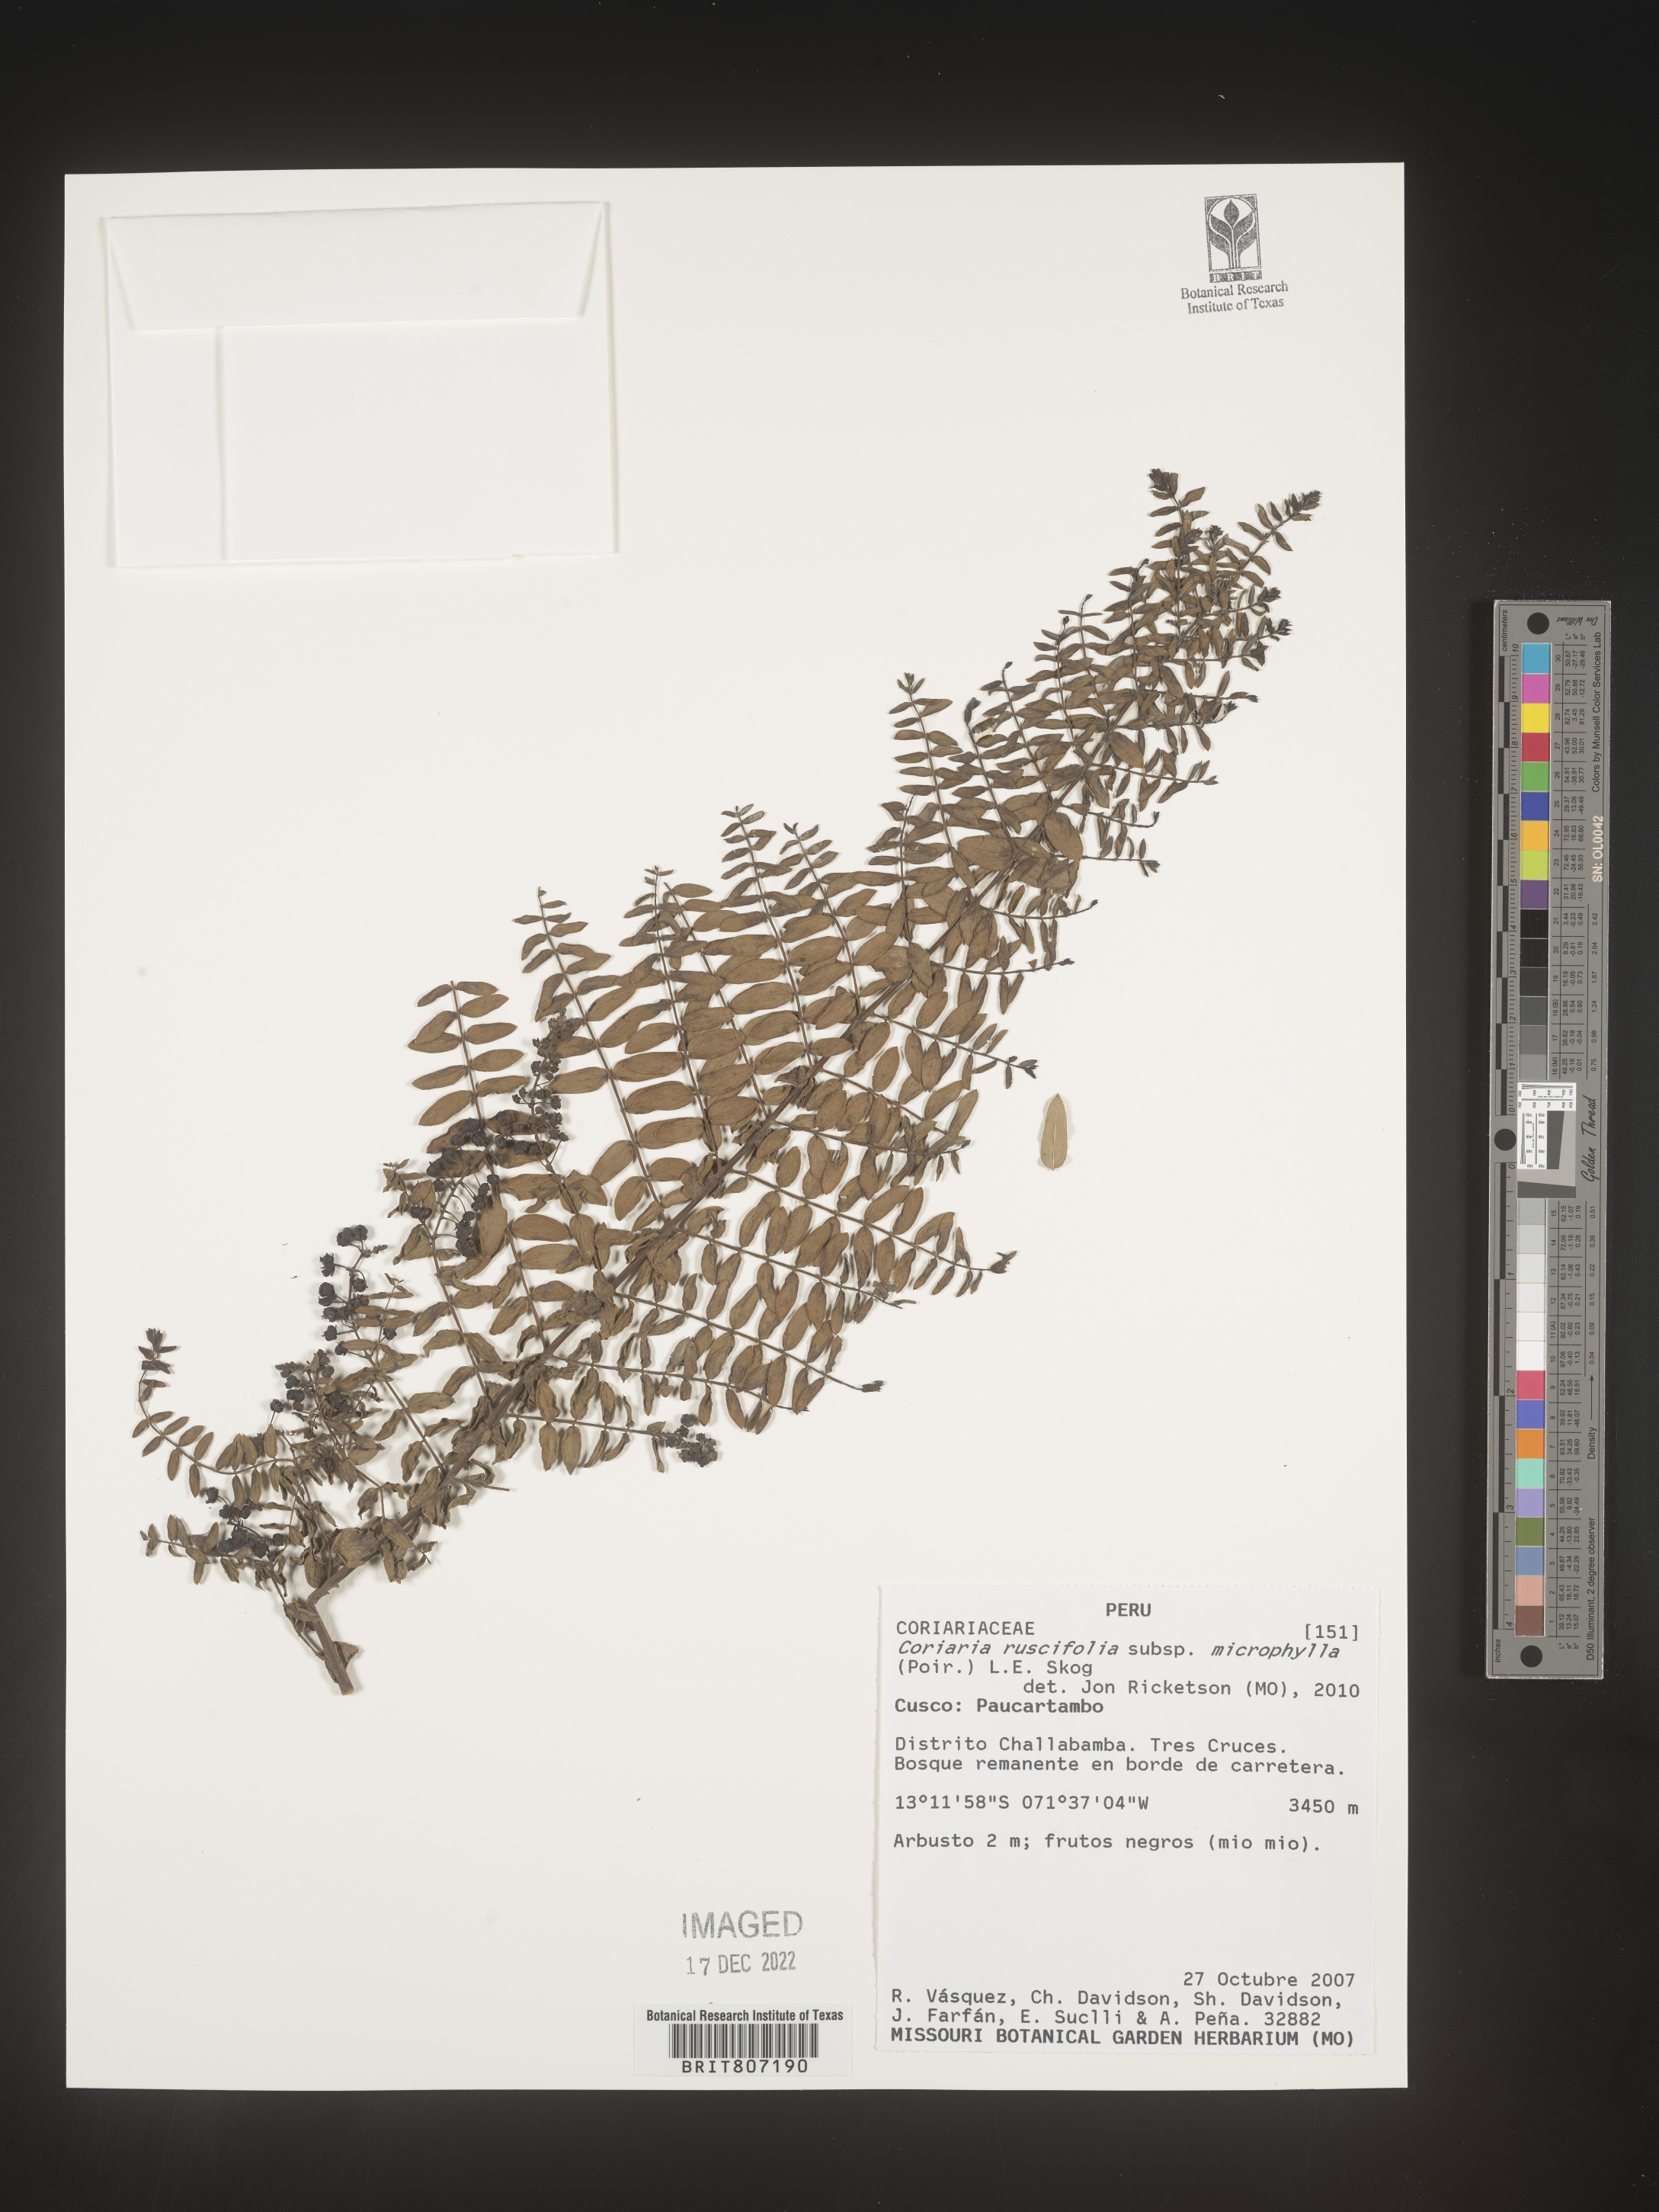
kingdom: Plantae
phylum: Tracheophyta
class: Magnoliopsida
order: Cucurbitales
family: Coriariaceae
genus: Coriaria
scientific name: Coriaria
